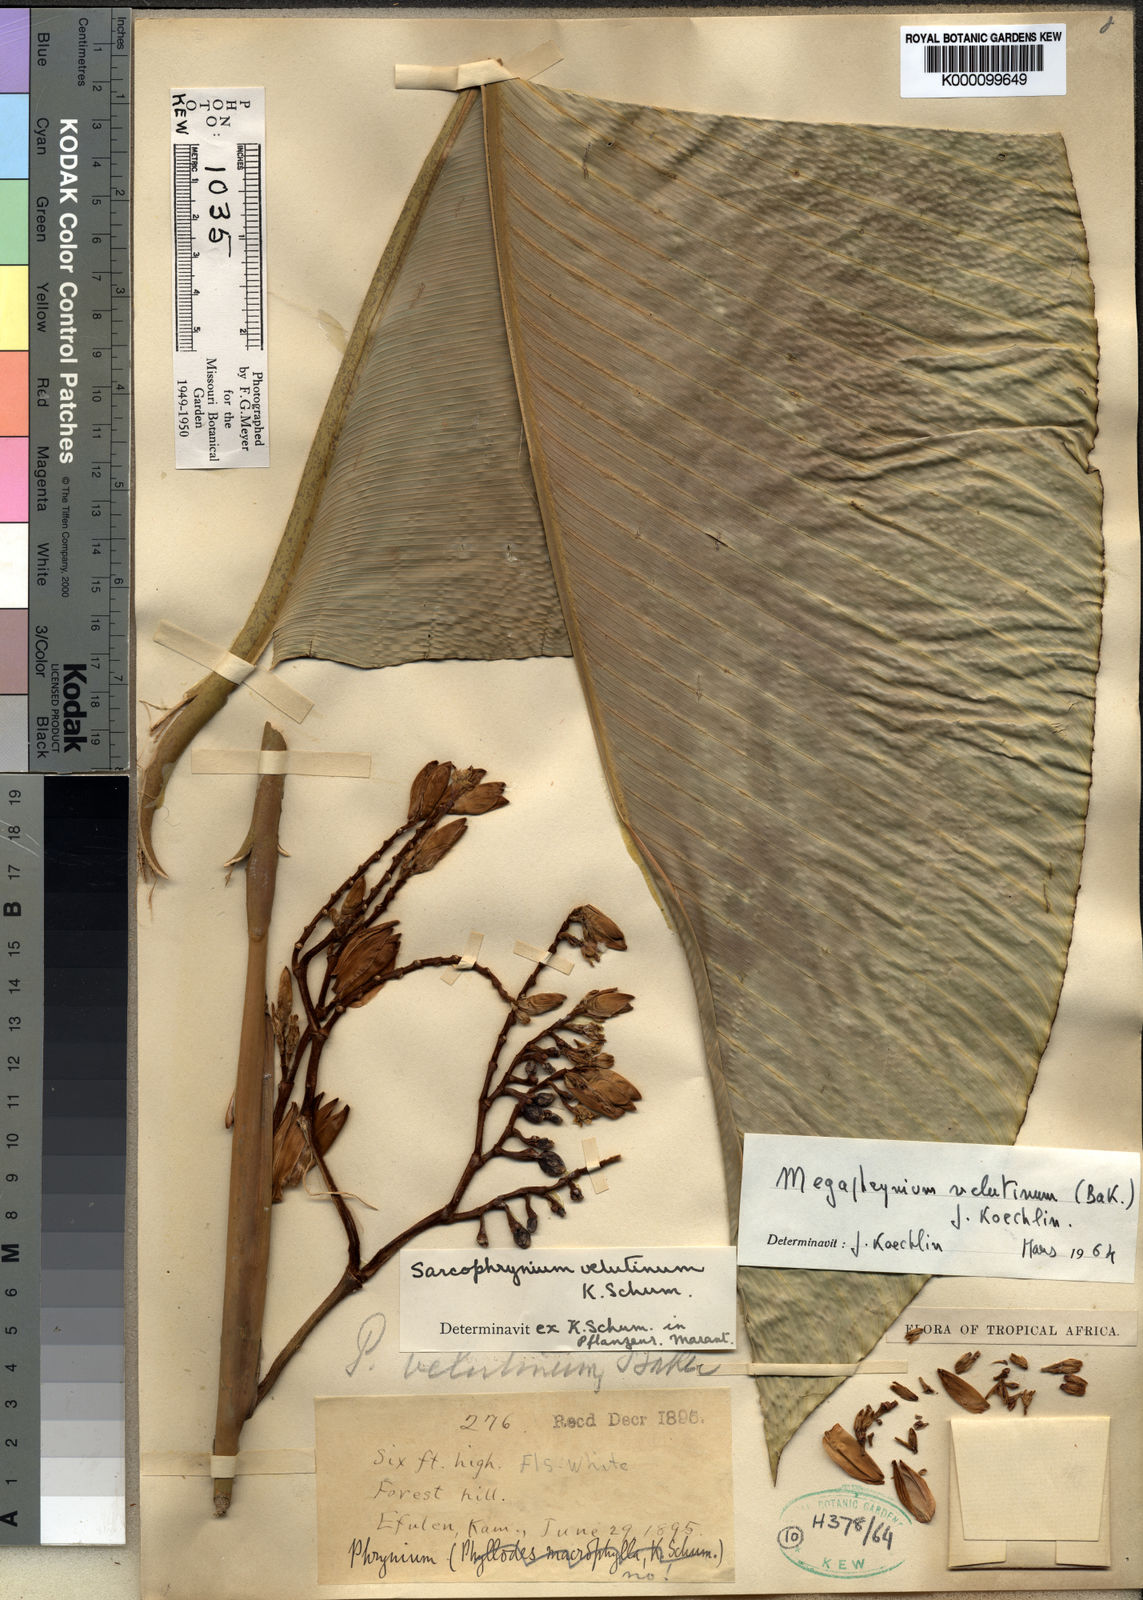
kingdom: Plantae
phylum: Tracheophyta
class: Liliopsida
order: Zingiberales
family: Marantaceae
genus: Megaphrynium
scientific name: Megaphrynium velutinum
